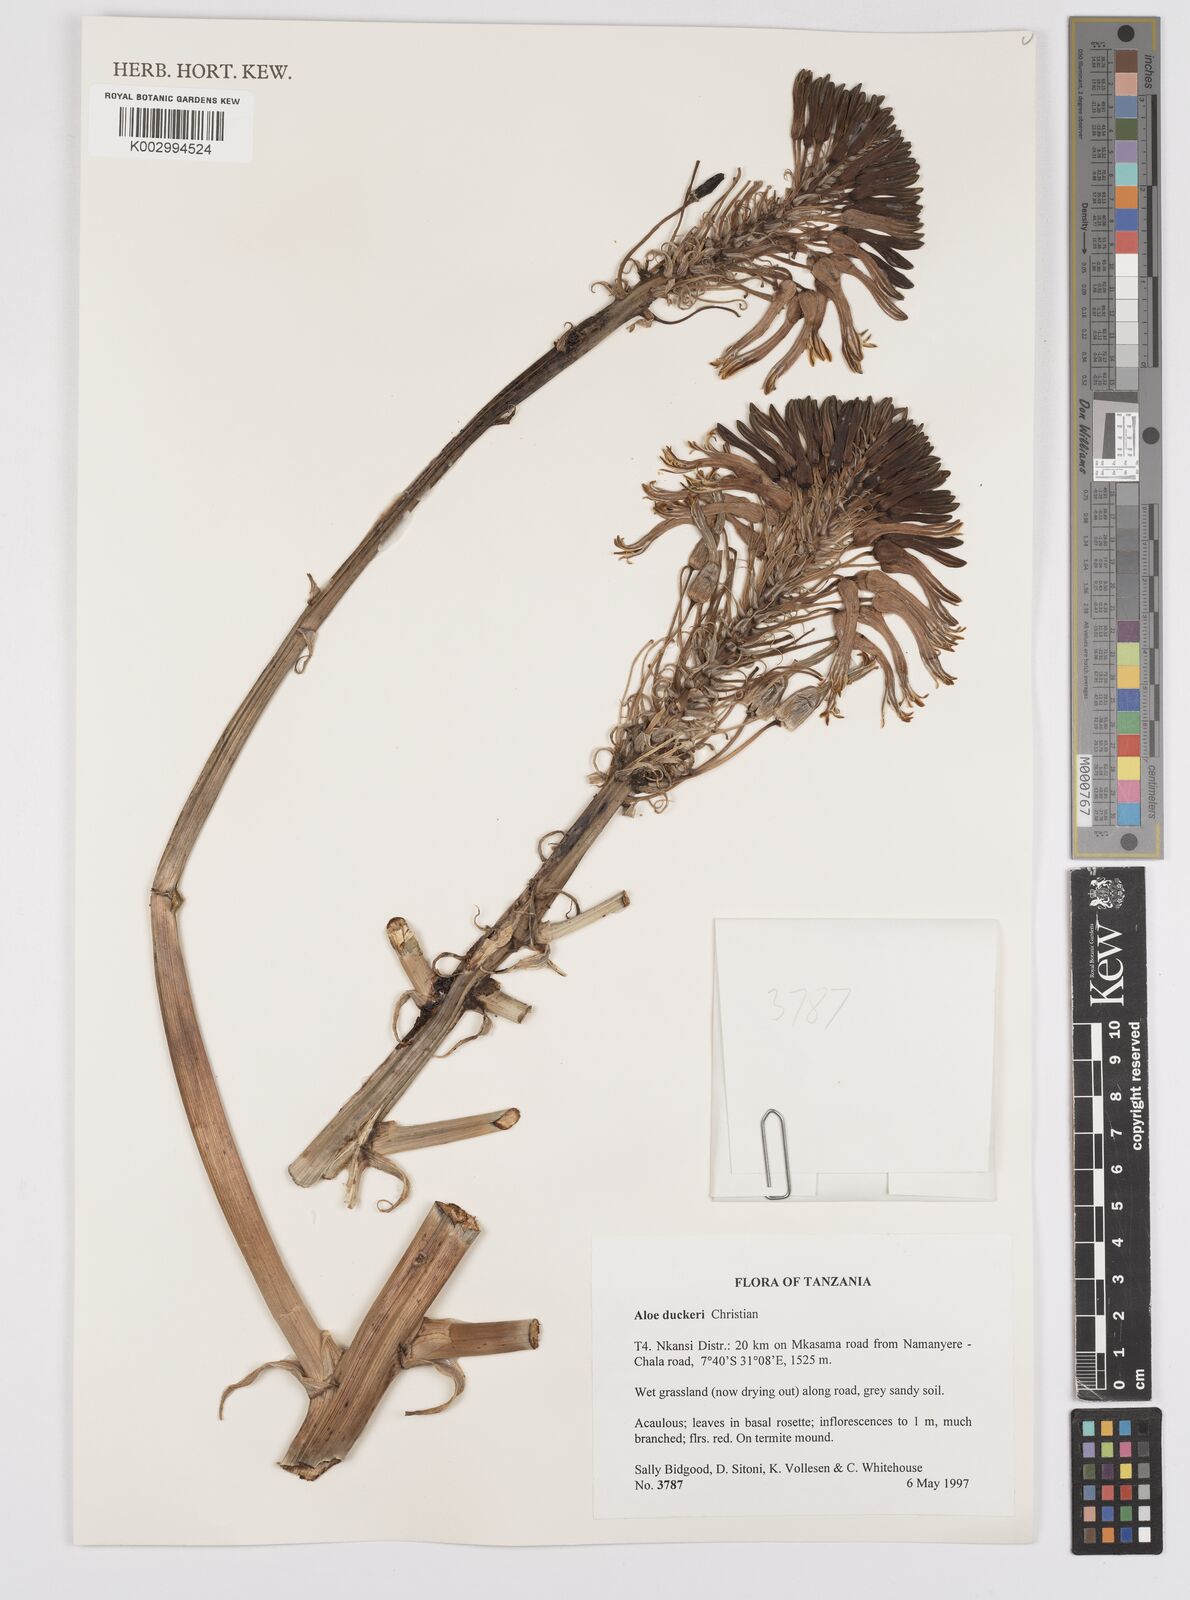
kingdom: Plantae
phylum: Tracheophyta
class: Liliopsida
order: Asparagales
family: Asphodelaceae
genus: Aloe
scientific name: Aloe duckeri
